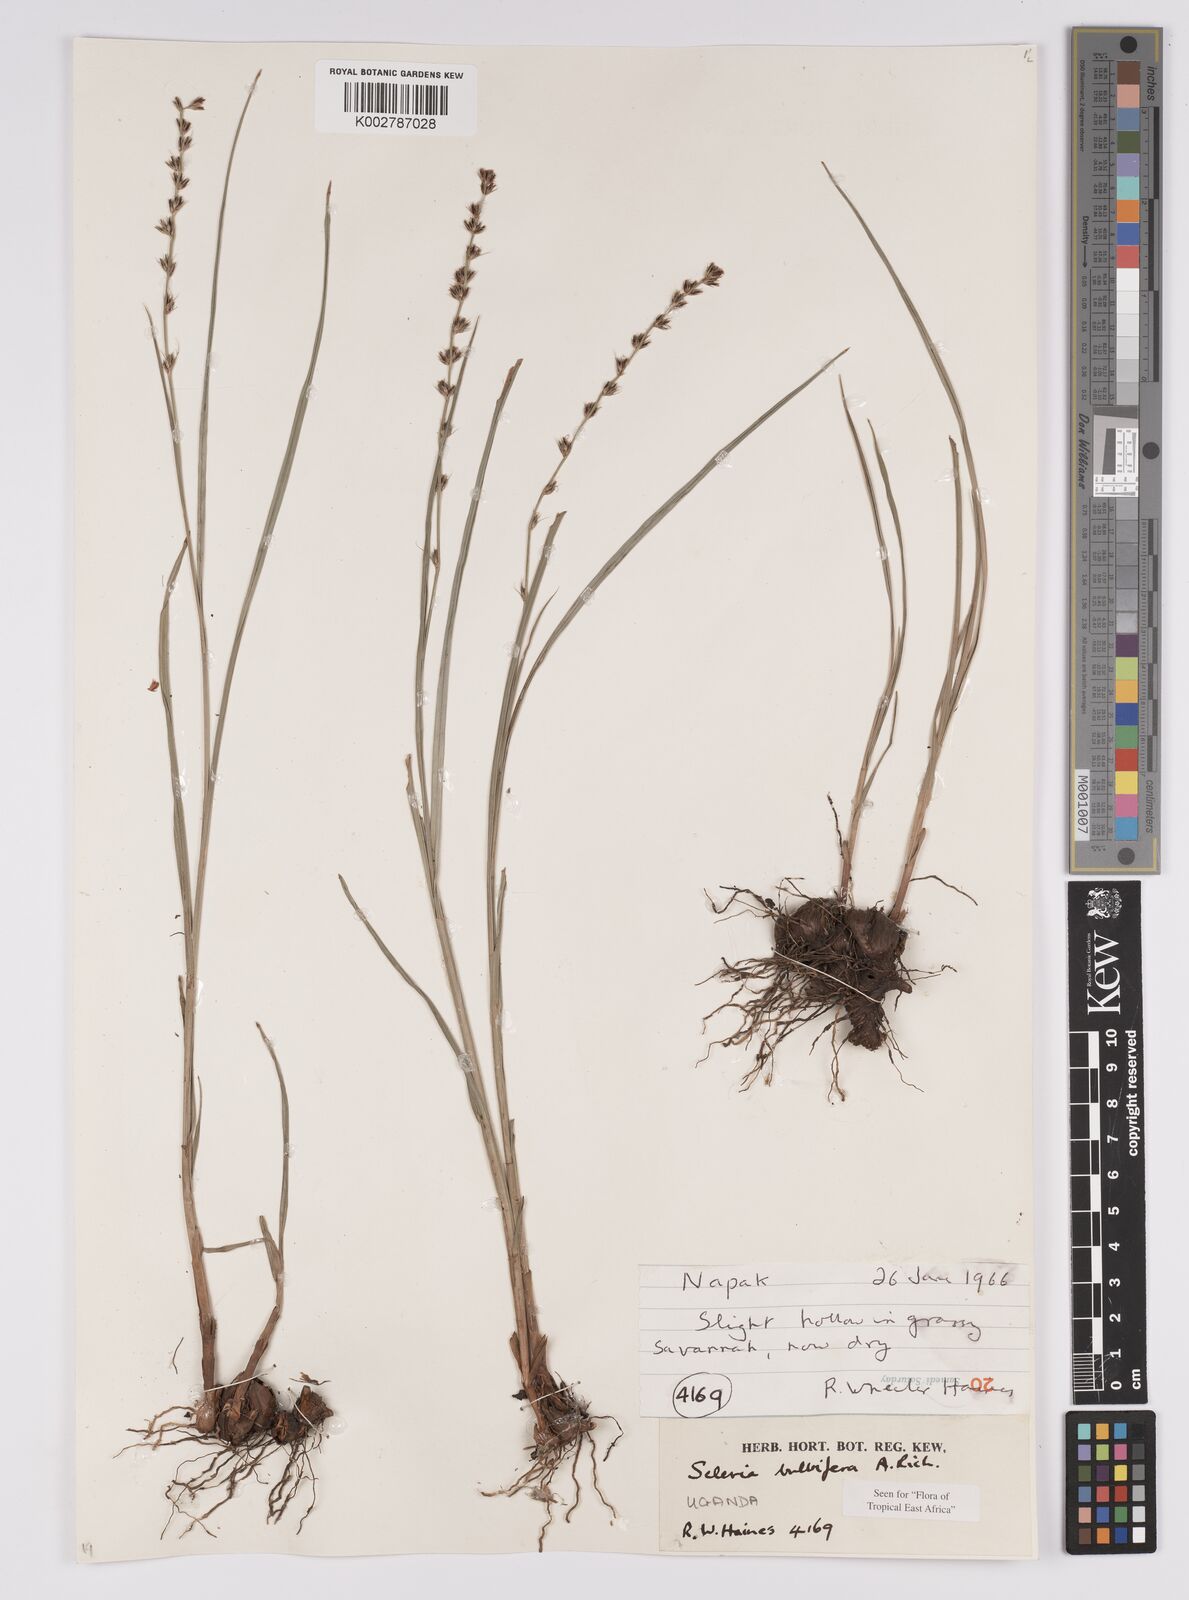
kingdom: Plantae
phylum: Tracheophyta
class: Liliopsida
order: Poales
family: Cyperaceae
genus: Scleria
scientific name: Scleria bulbifera
